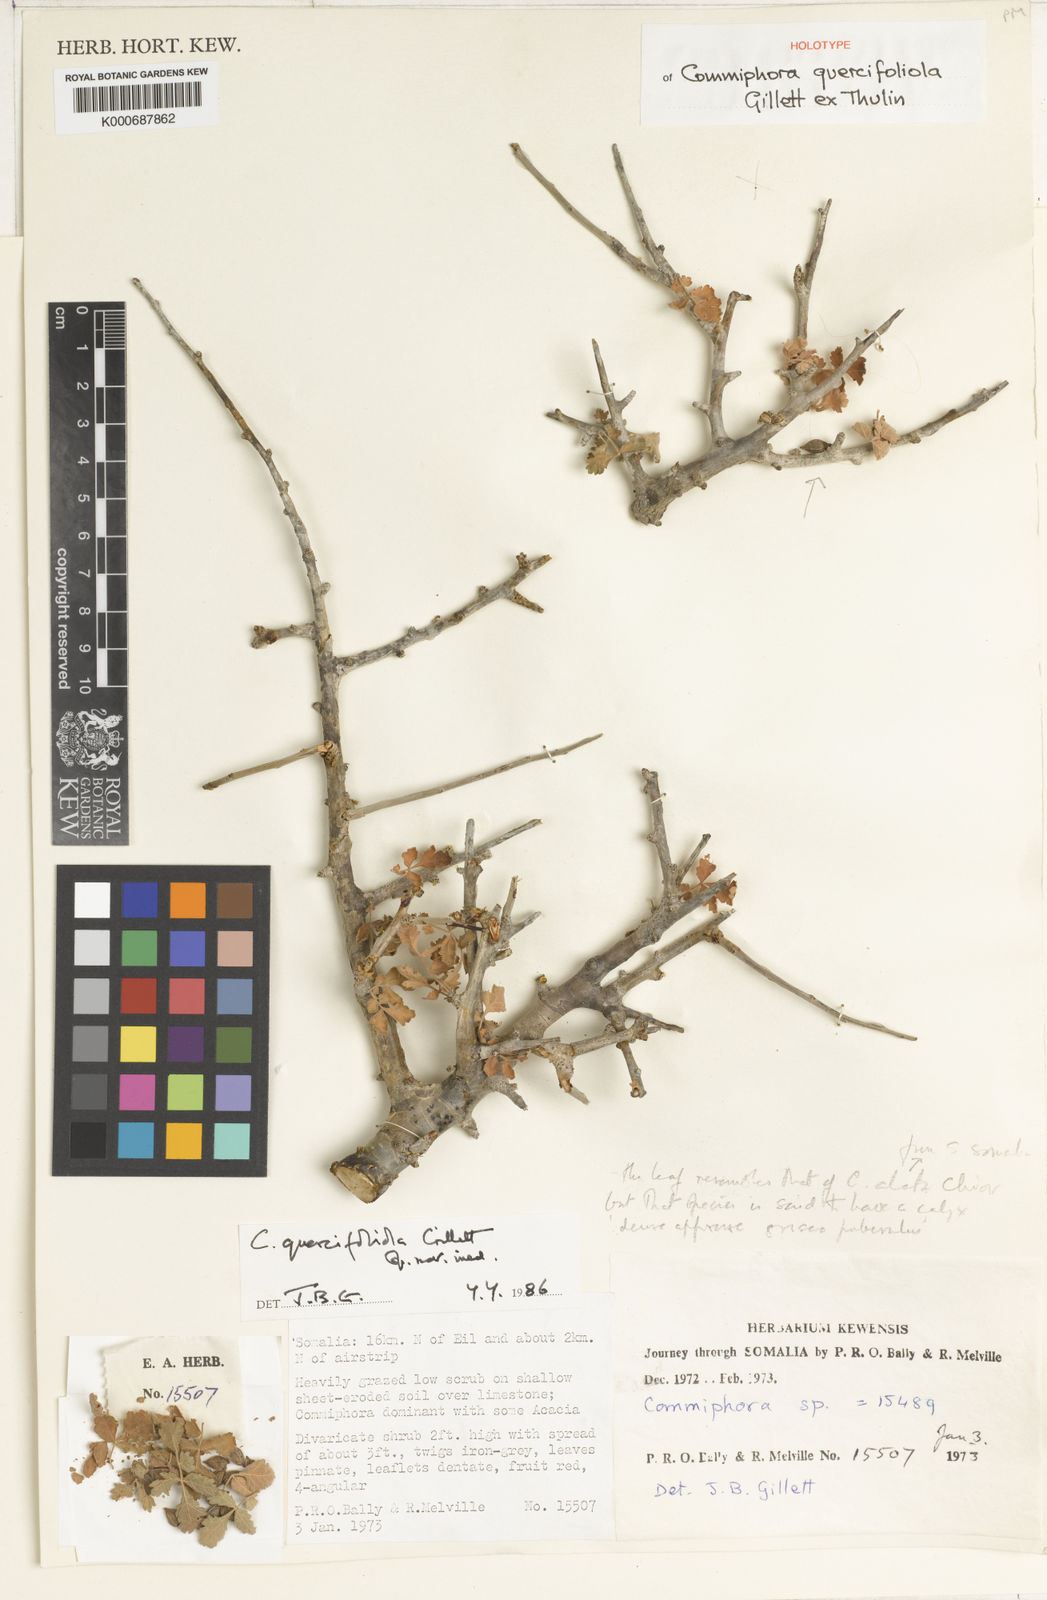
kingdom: Plantae
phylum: Tracheophyta
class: Magnoliopsida
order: Sapindales
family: Burseraceae
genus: Commiphora
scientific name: Commiphora quercifoliola
